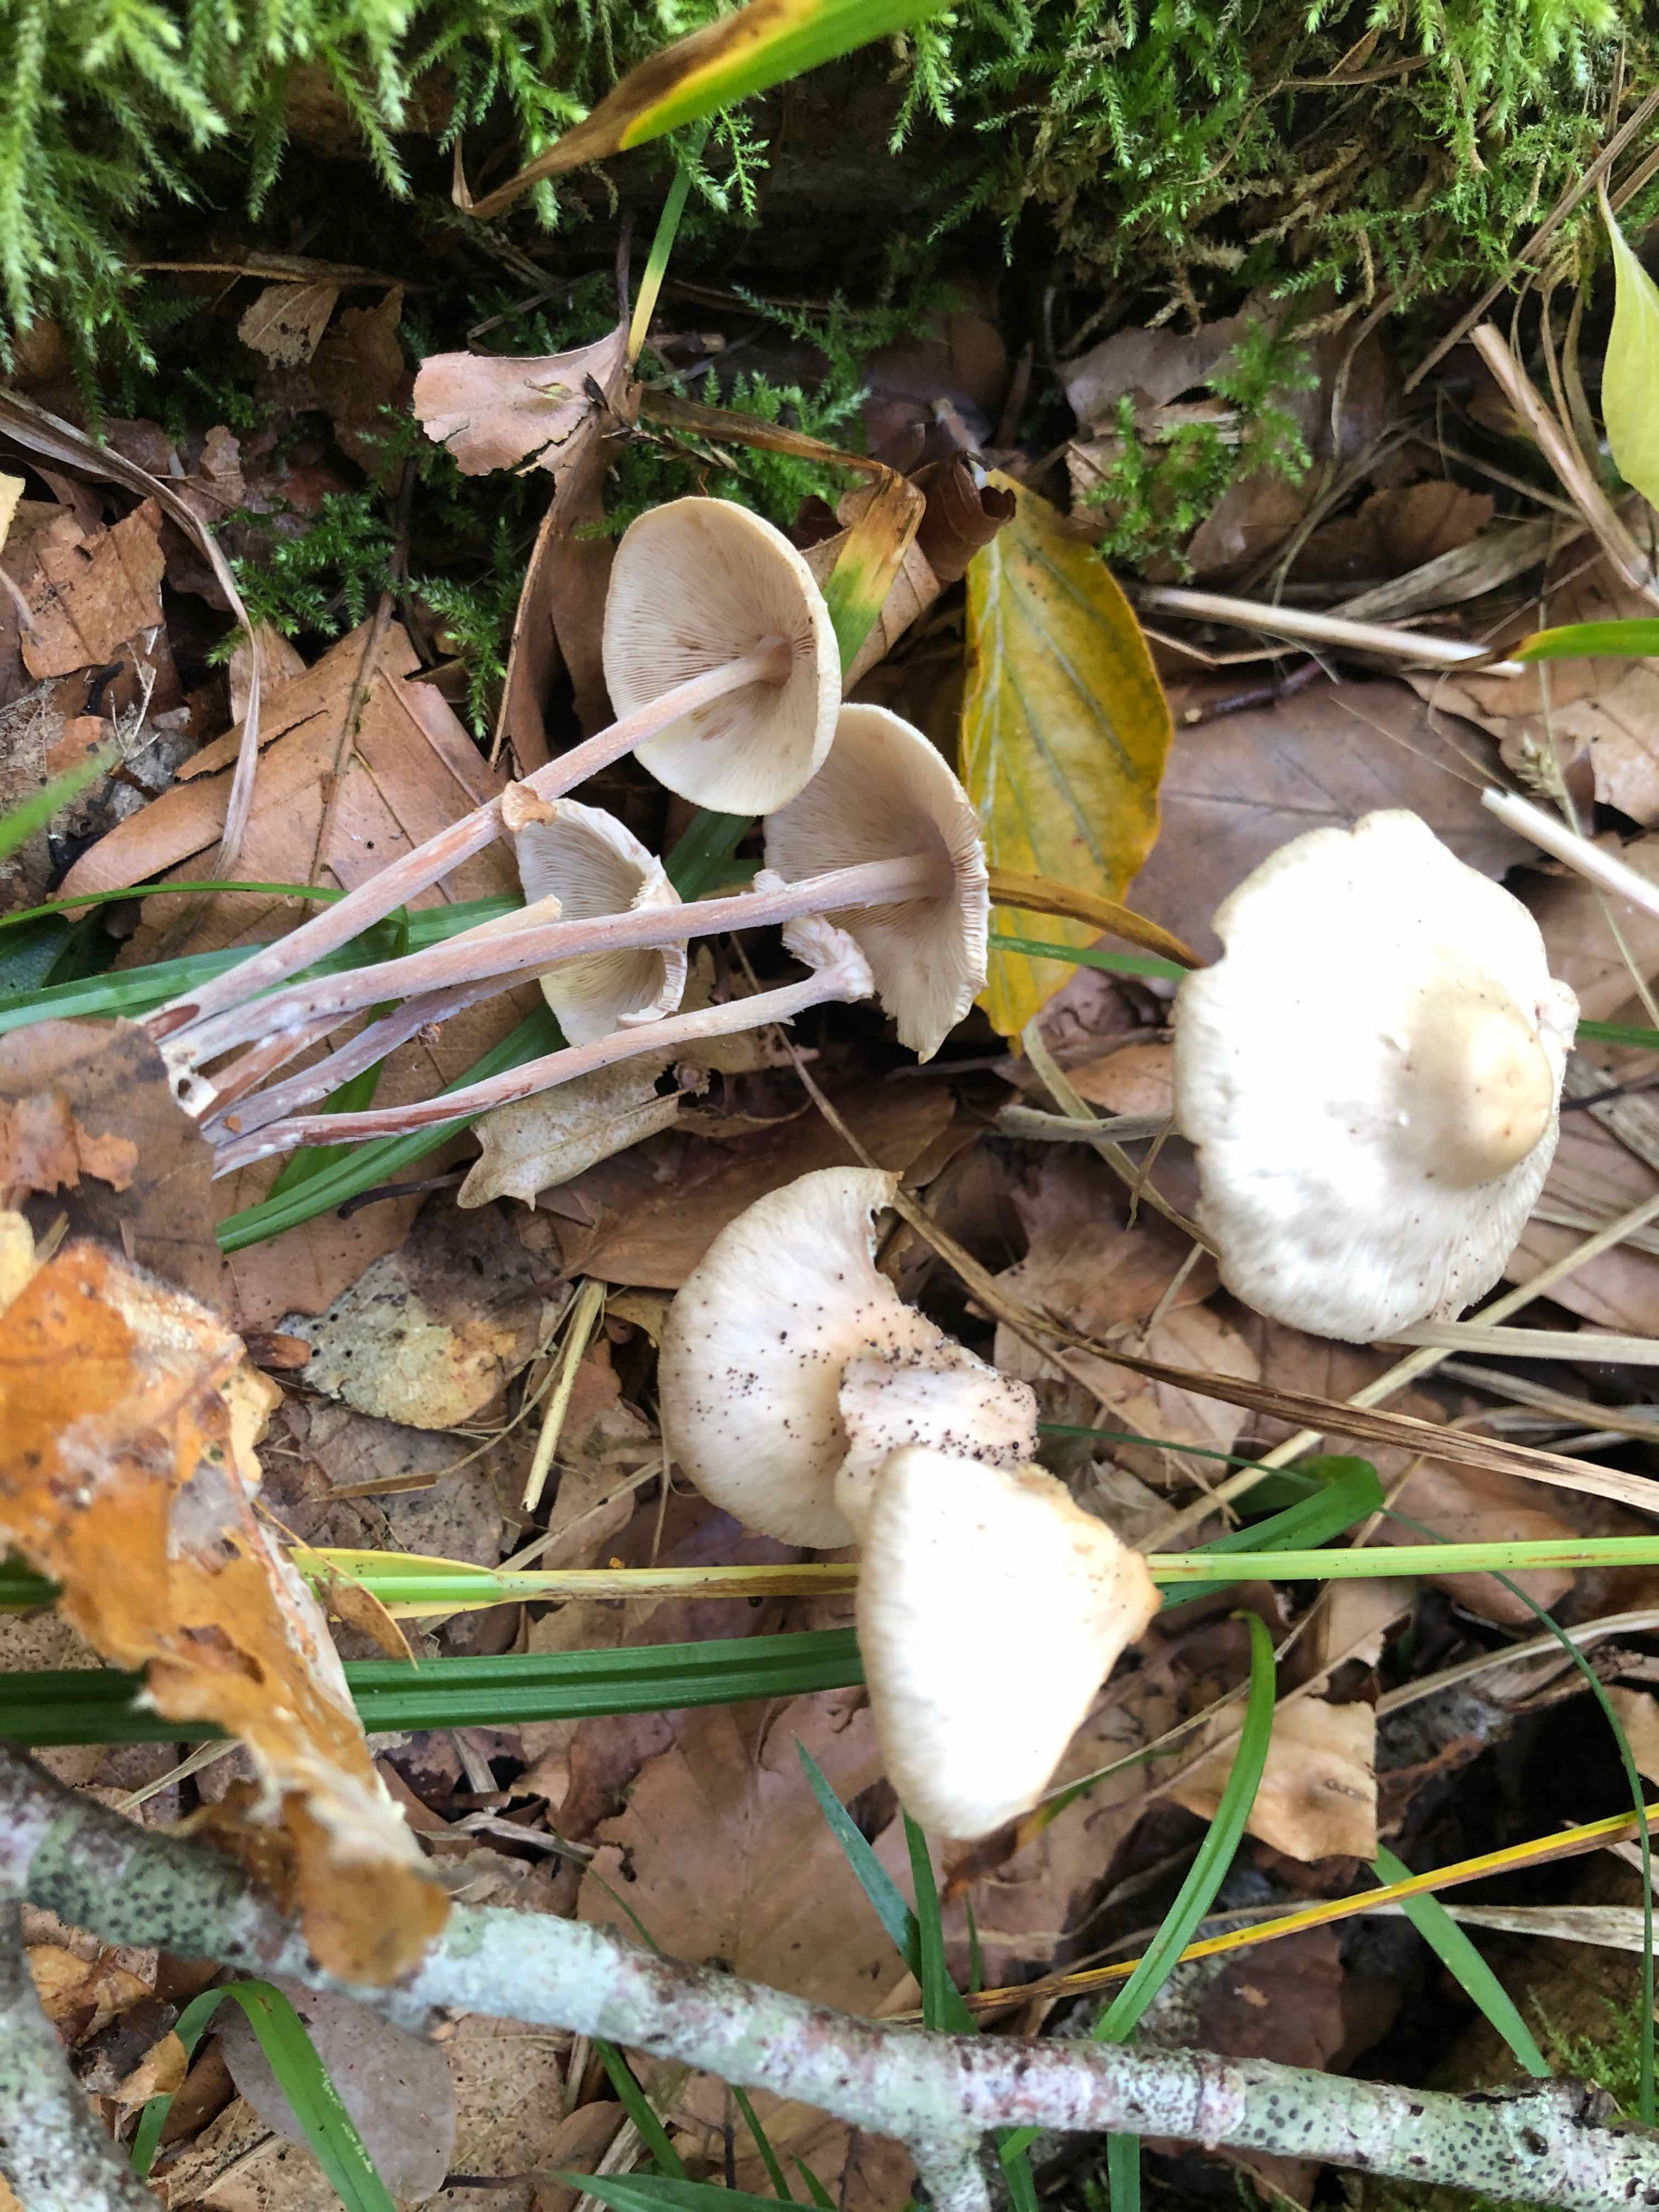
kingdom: Fungi
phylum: Basidiomycota
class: Agaricomycetes
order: Agaricales
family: Omphalotaceae
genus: Collybiopsis
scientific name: Collybiopsis confluens
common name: knippe-fladhat
